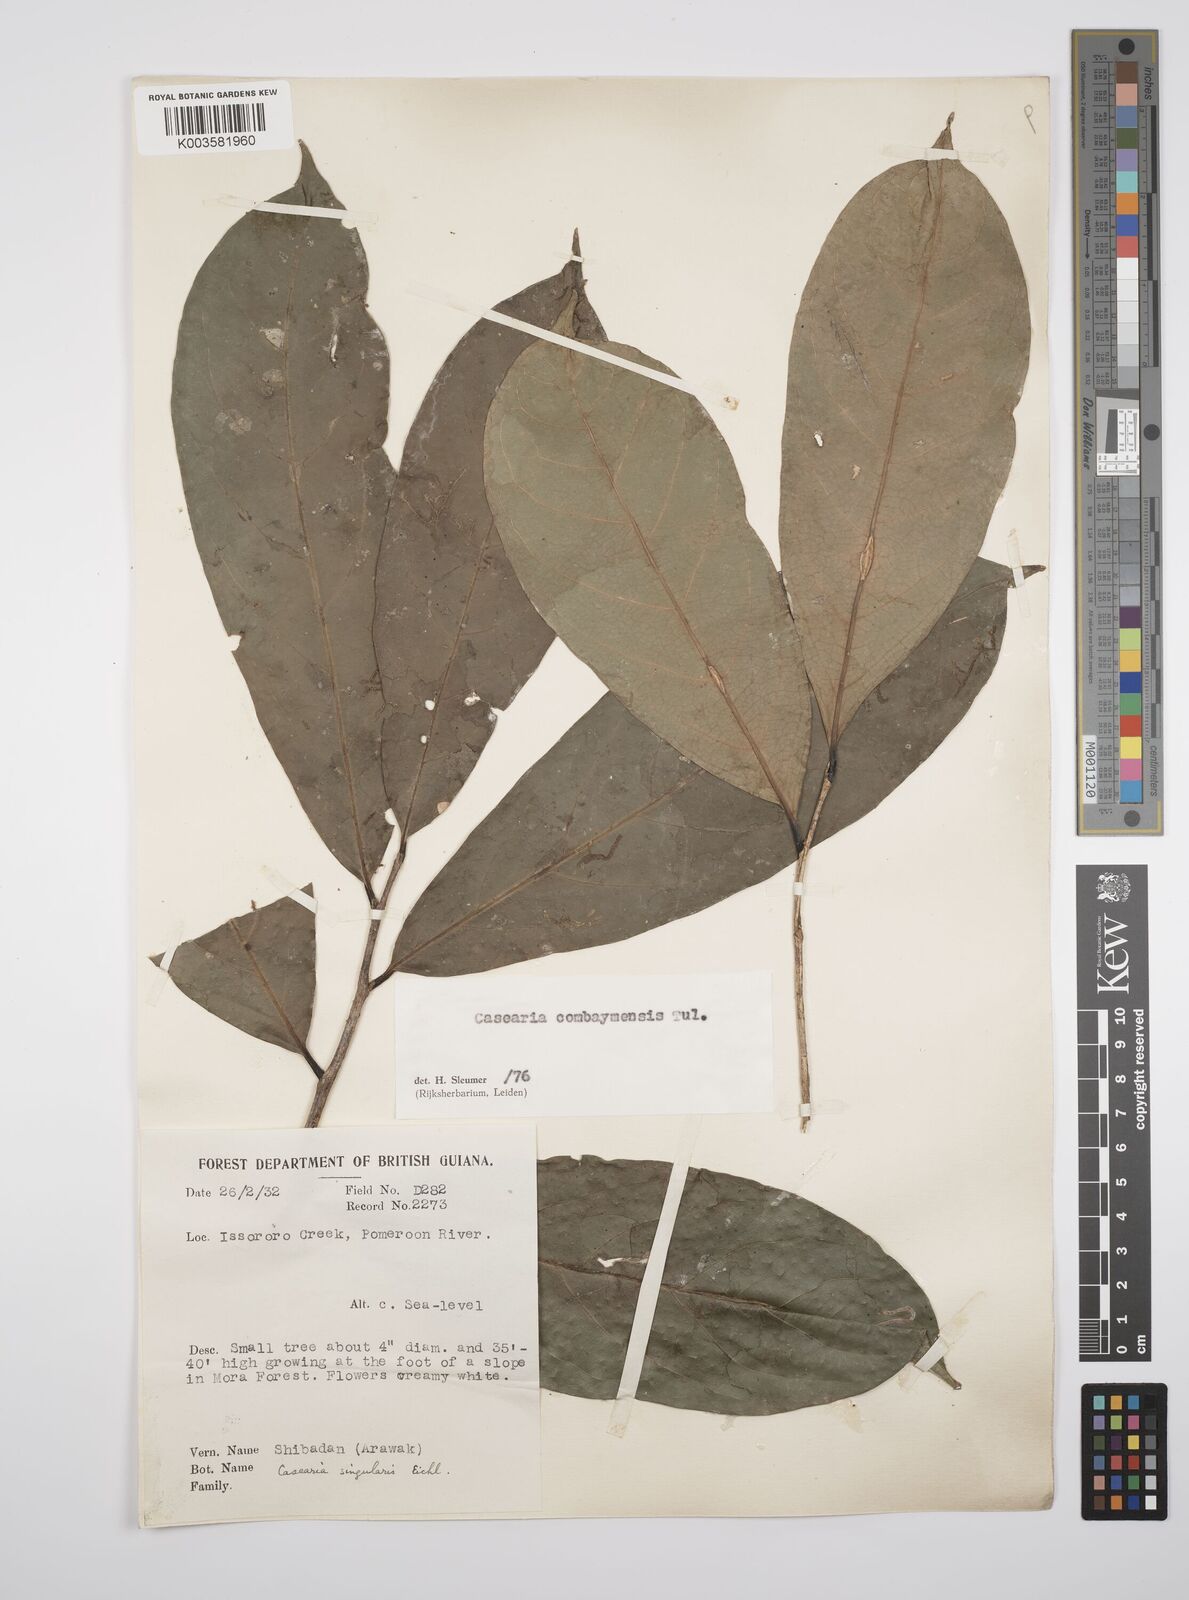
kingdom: Plantae
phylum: Tracheophyta
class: Magnoliopsida
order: Malpighiales
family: Salicaceae
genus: Casearia
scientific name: Casearia combaymensis
